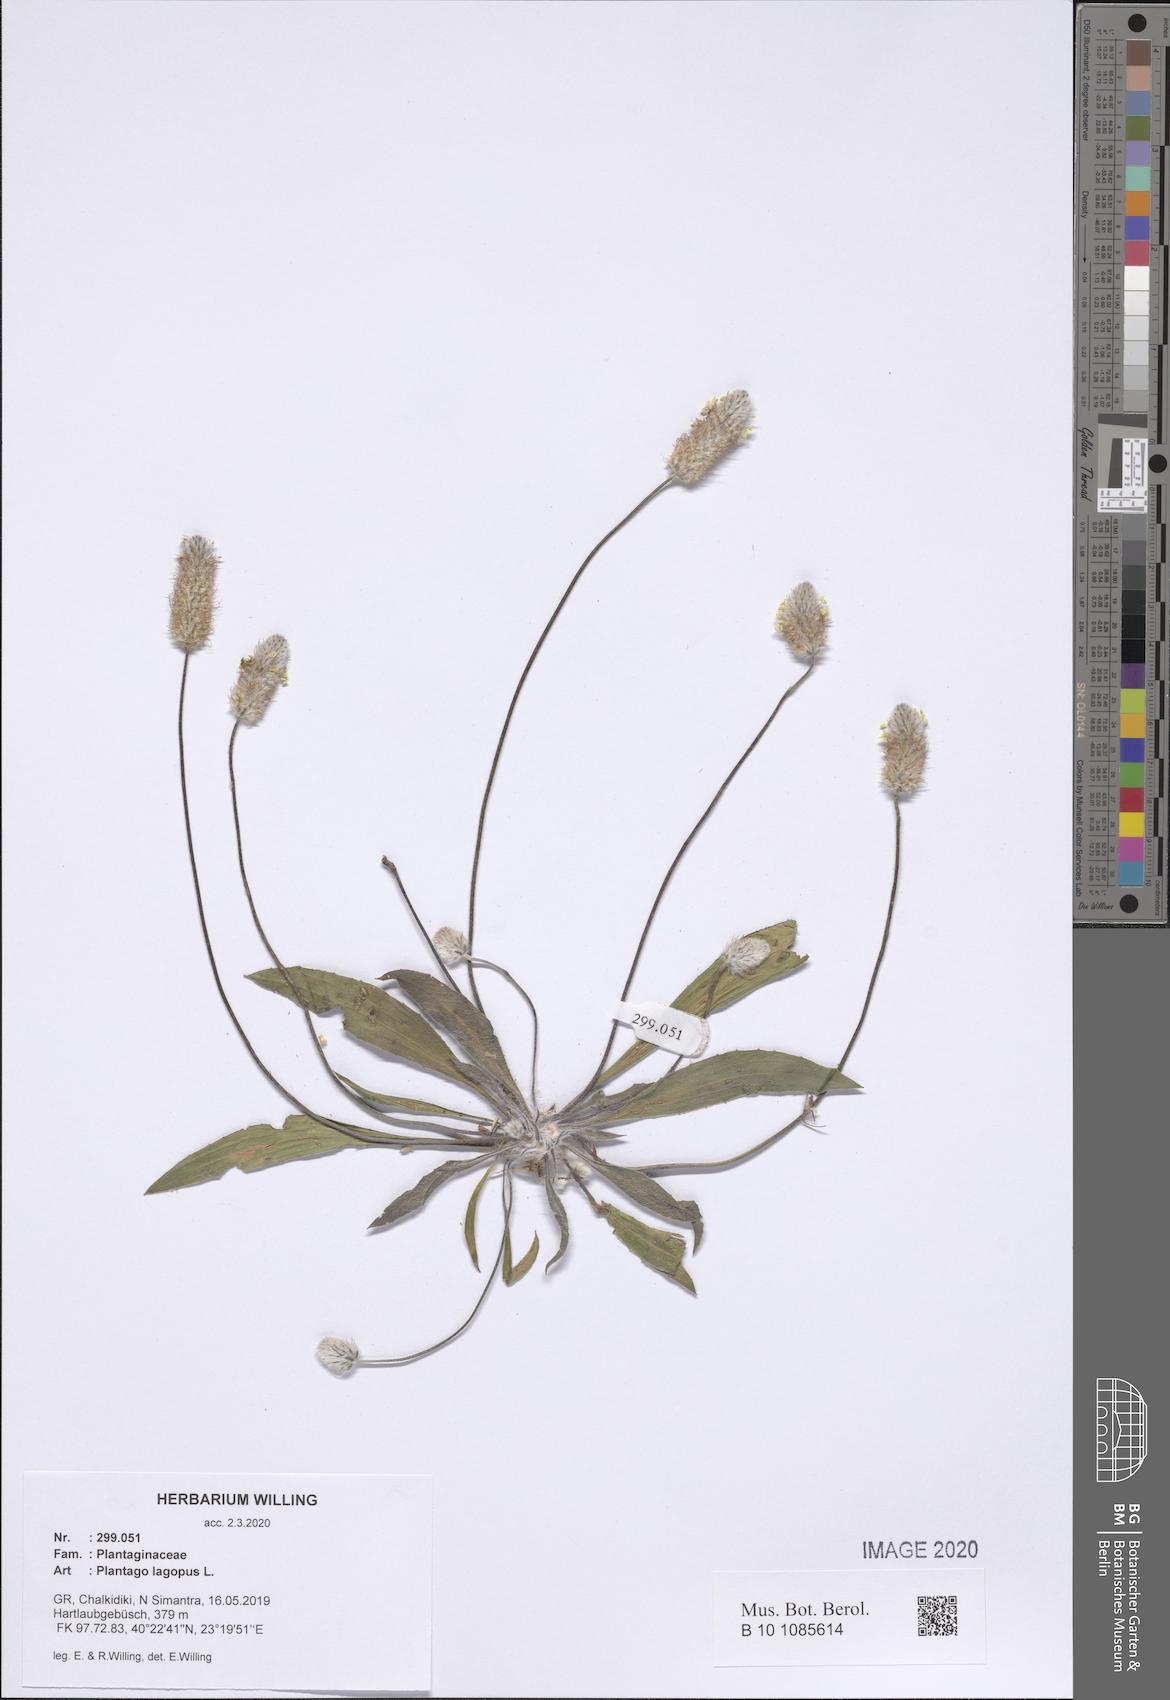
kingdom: Plantae
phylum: Tracheophyta
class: Magnoliopsida
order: Lamiales
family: Plantaginaceae
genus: Plantago
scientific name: Plantago lagopus
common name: Hare-foot plantain
